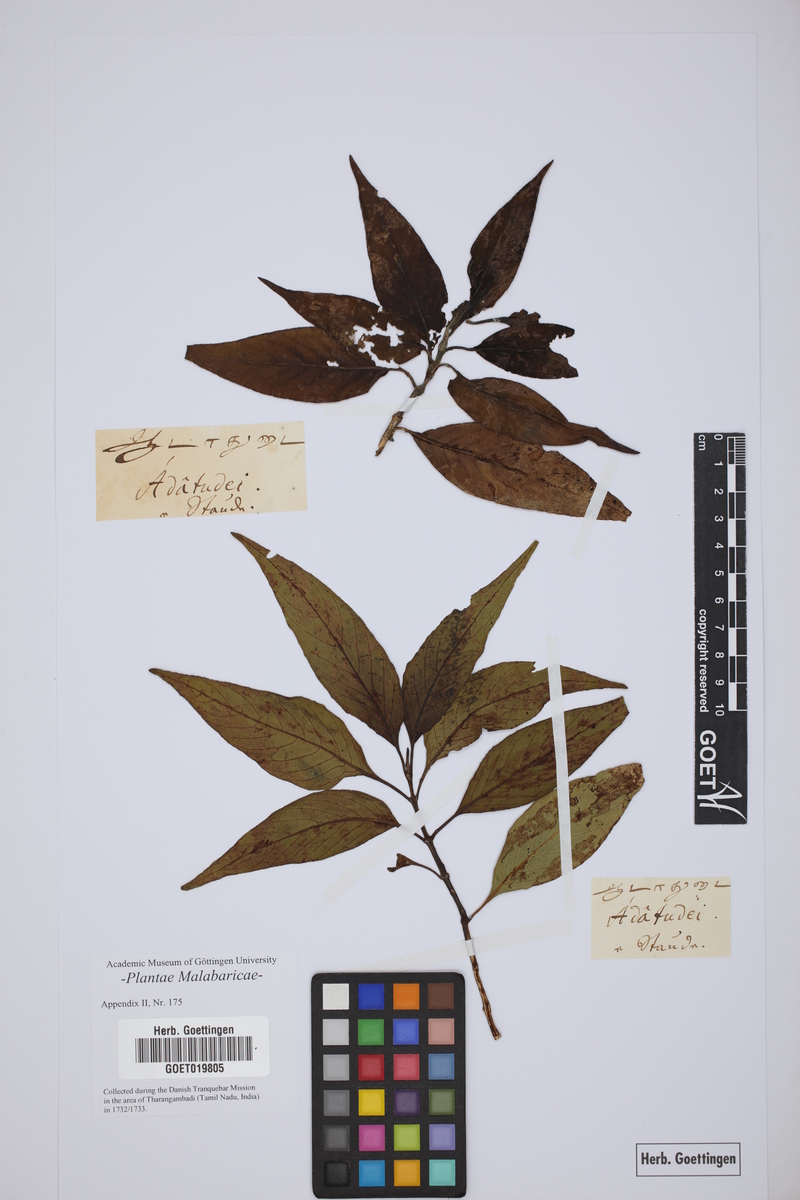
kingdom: Plantae
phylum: Tracheophyta
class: Magnoliopsida
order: Lamiales
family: Acanthaceae
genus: Justicia
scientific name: Justicia adhatoda
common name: Malabar nut
